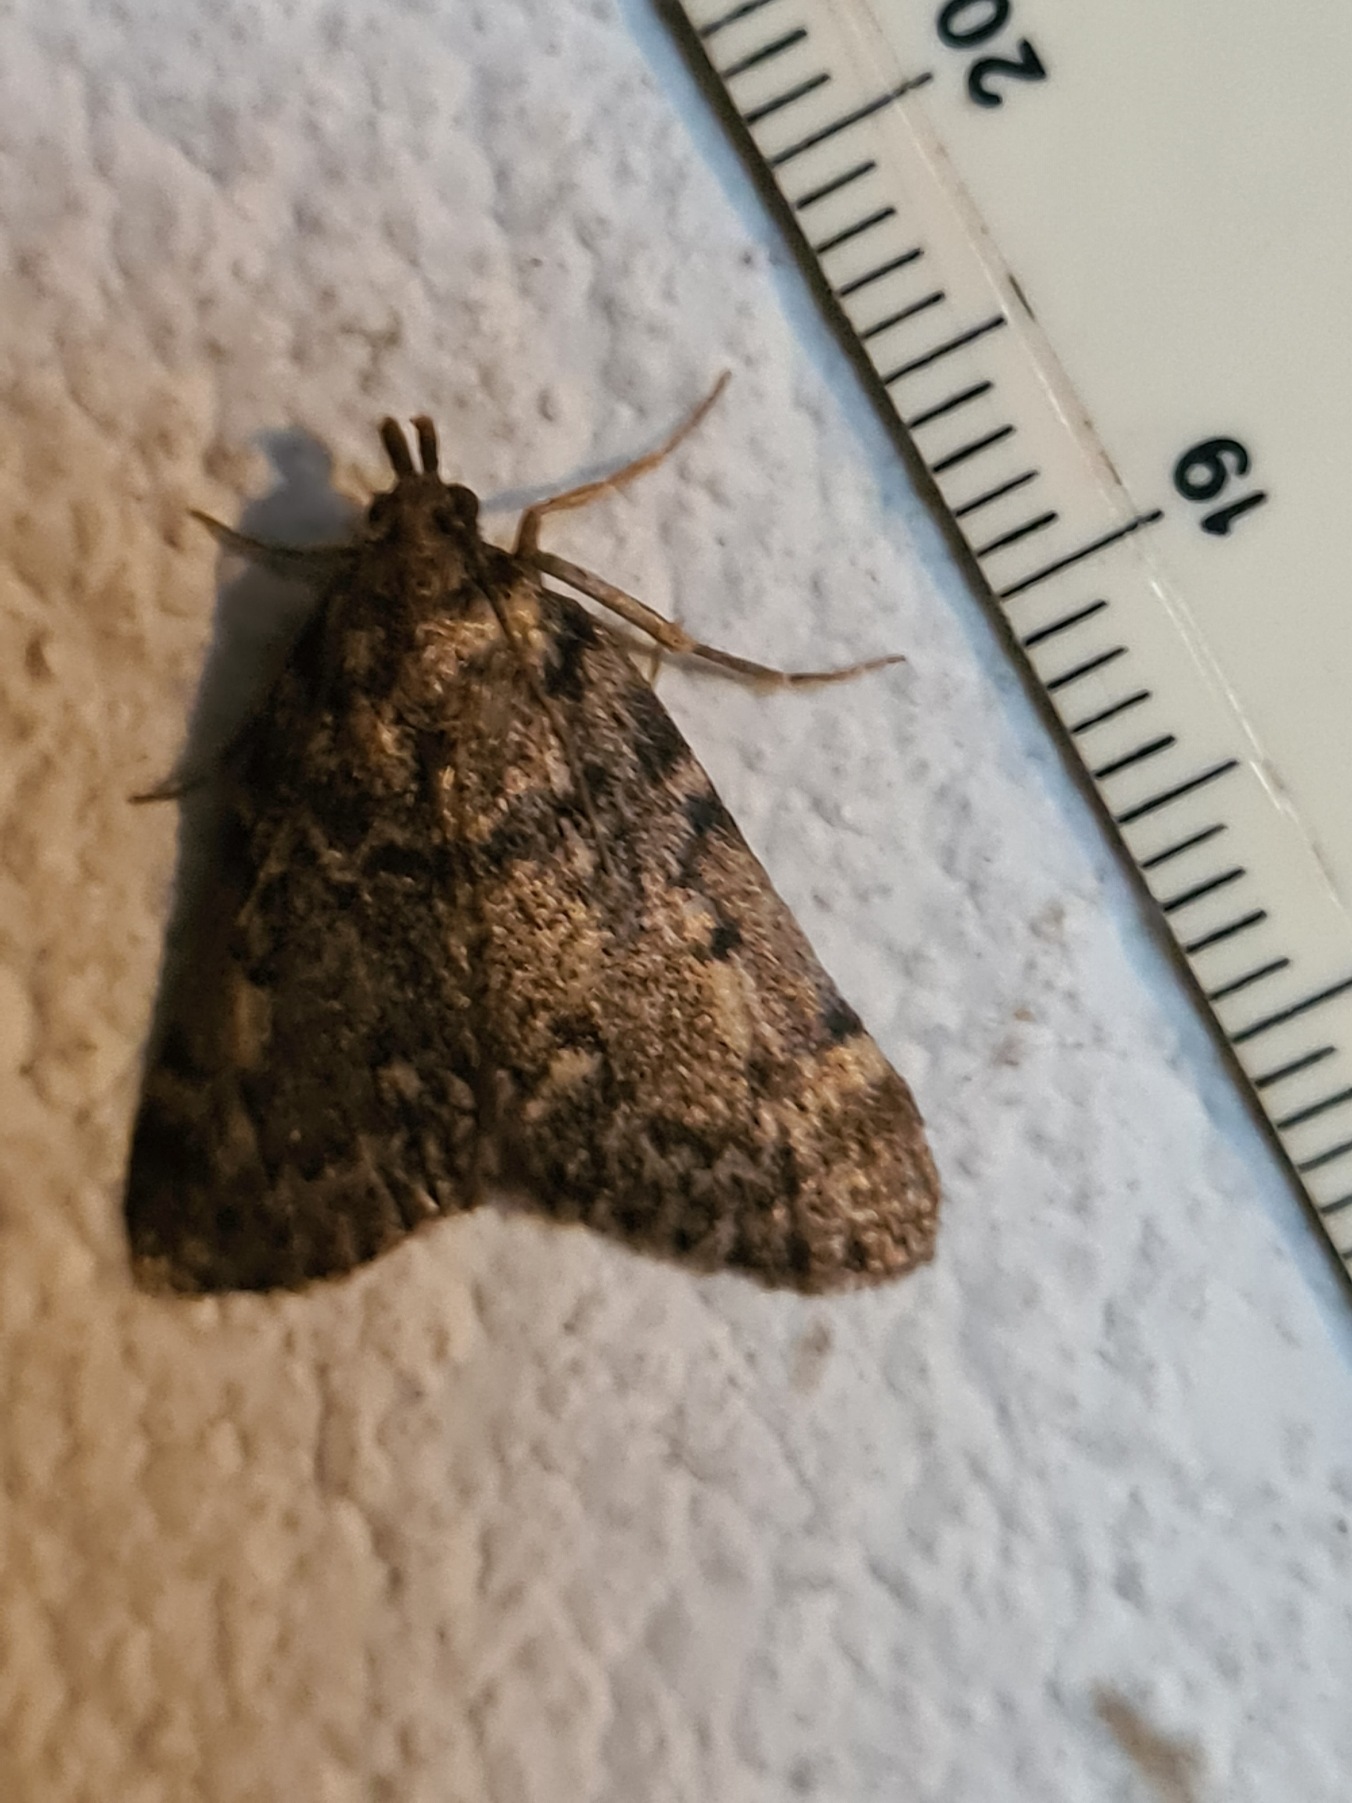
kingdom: Animalia
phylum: Arthropoda
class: Insecta
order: Lepidoptera
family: Pyralidae
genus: Aglossa
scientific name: Aglossa pinguinalis
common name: Fedtmøl
